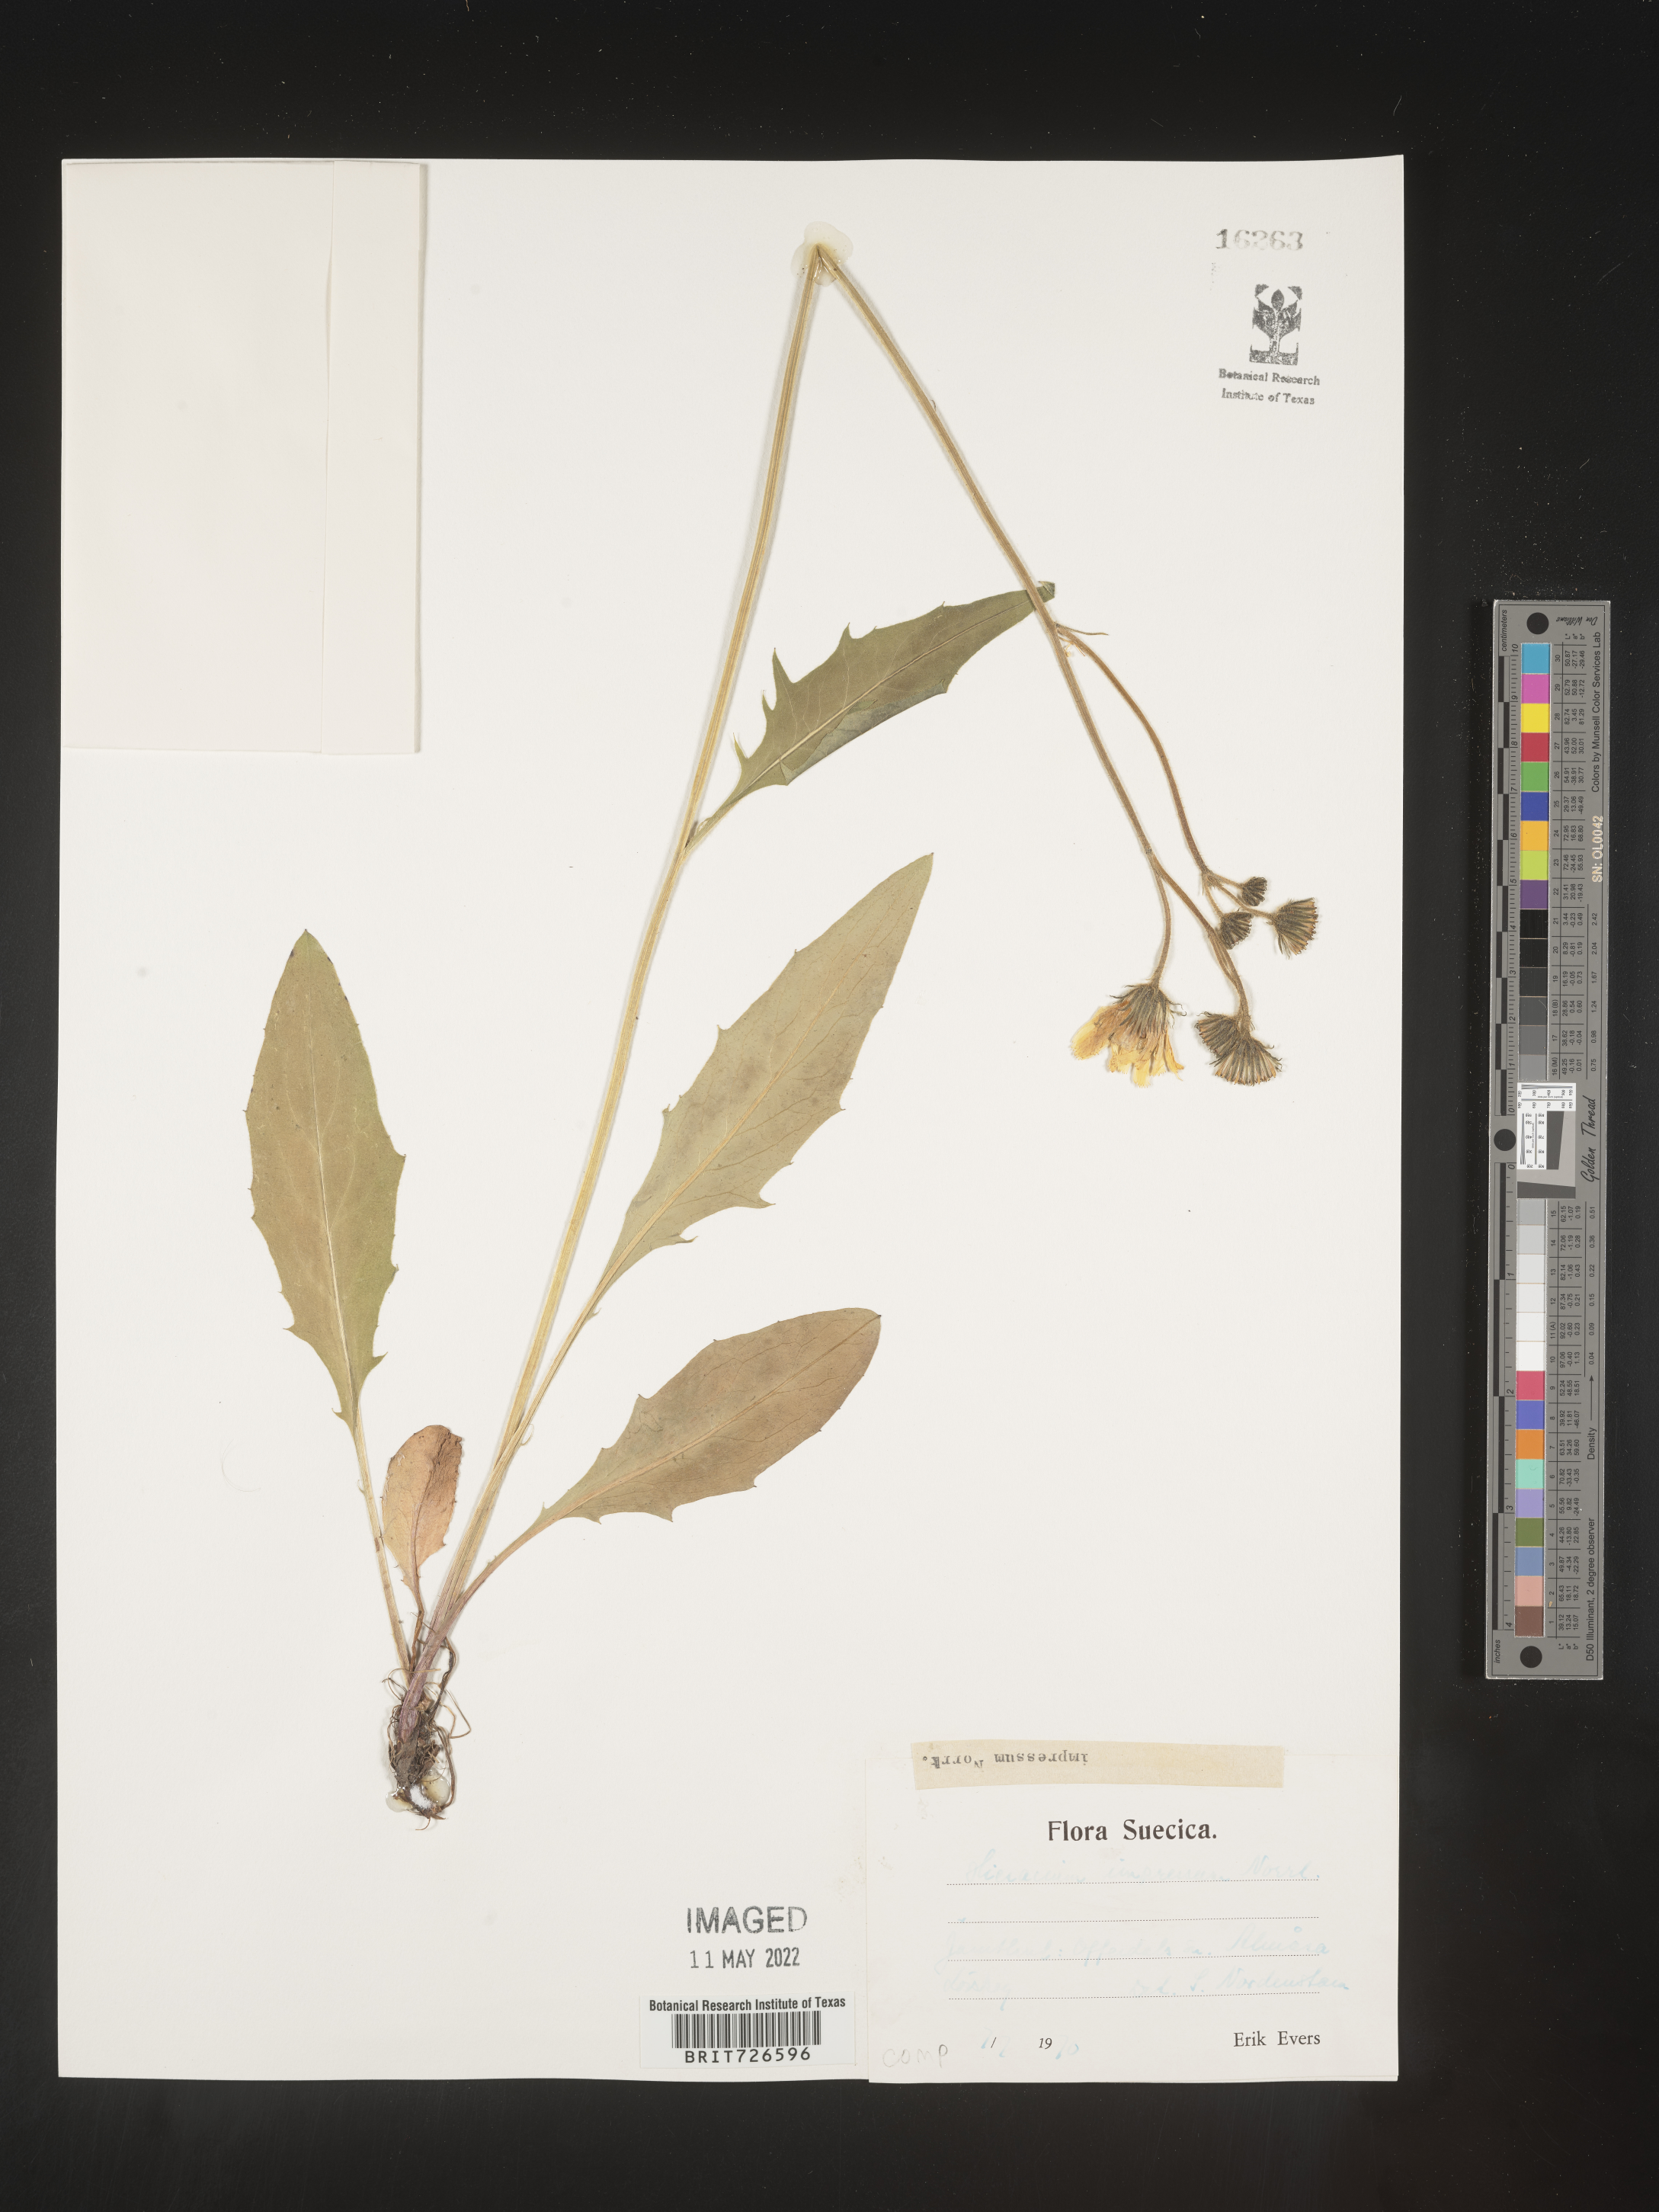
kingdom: Plantae
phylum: Tracheophyta
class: Magnoliopsida
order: Asterales
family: Asteraceae
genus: Hieracium
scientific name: Hieracium
